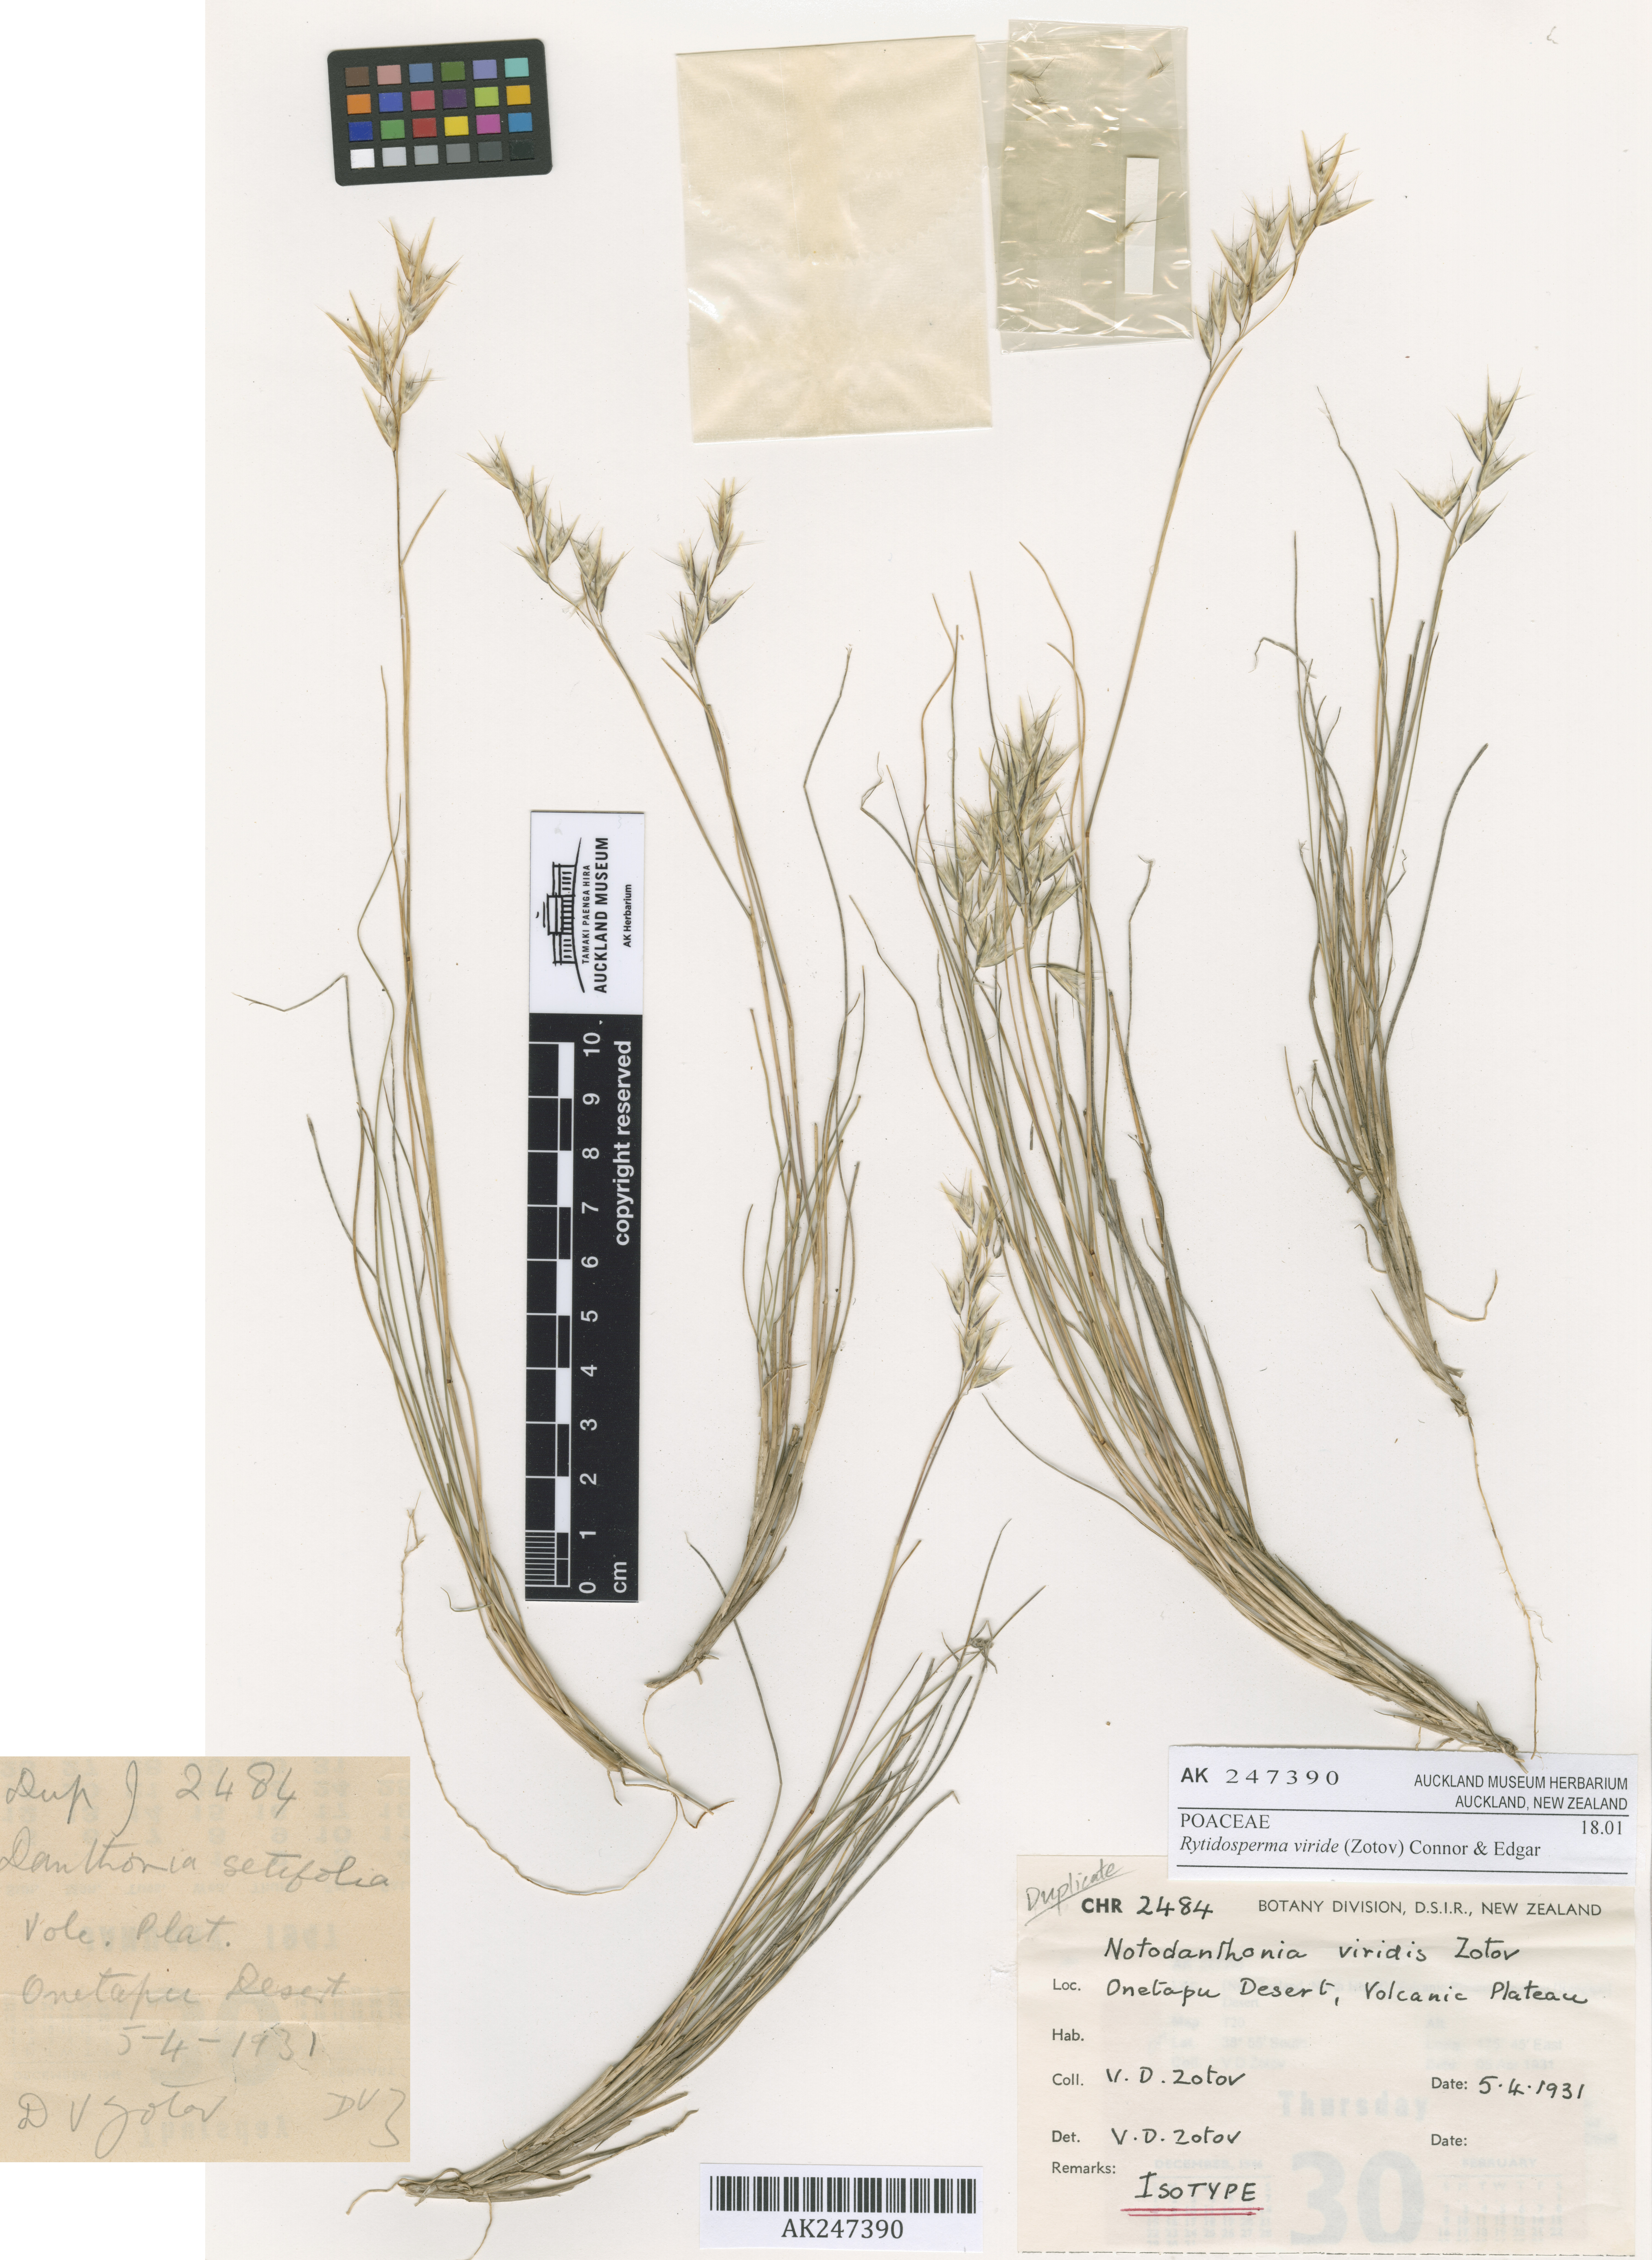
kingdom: Plantae
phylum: Tracheophyta
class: Liliopsida
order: Poales
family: Poaceae
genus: Rytidosperma
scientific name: Rytidosperma viride
